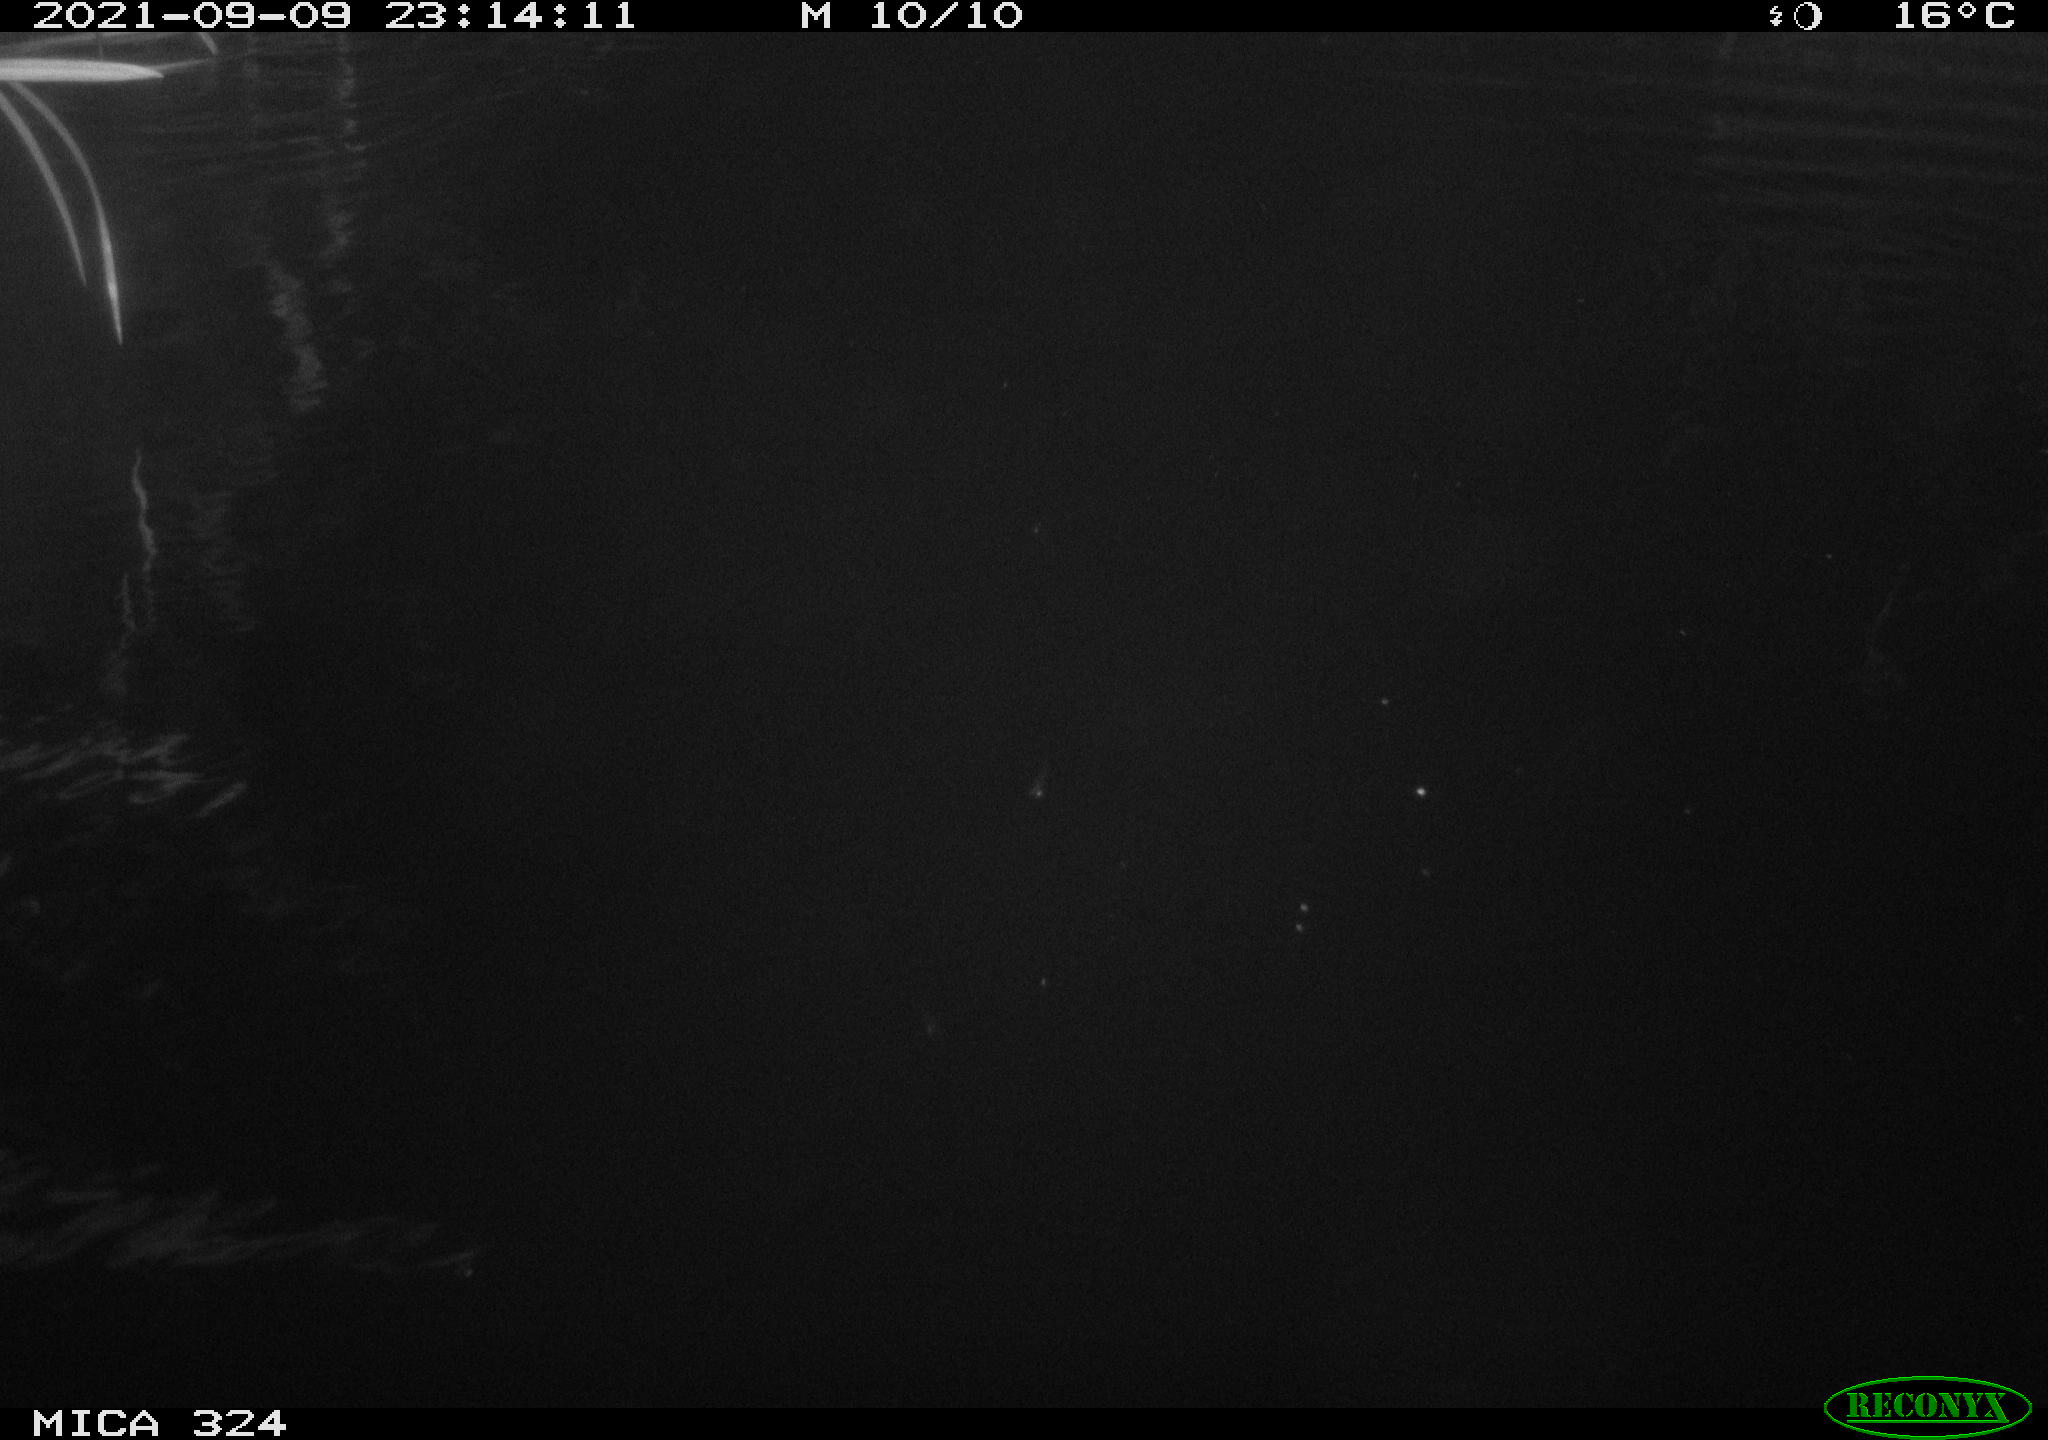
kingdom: Animalia
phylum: Chordata
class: Mammalia
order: Rodentia
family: Cricetidae
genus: Ondatra
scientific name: Ondatra zibethicus
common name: Muskrat
